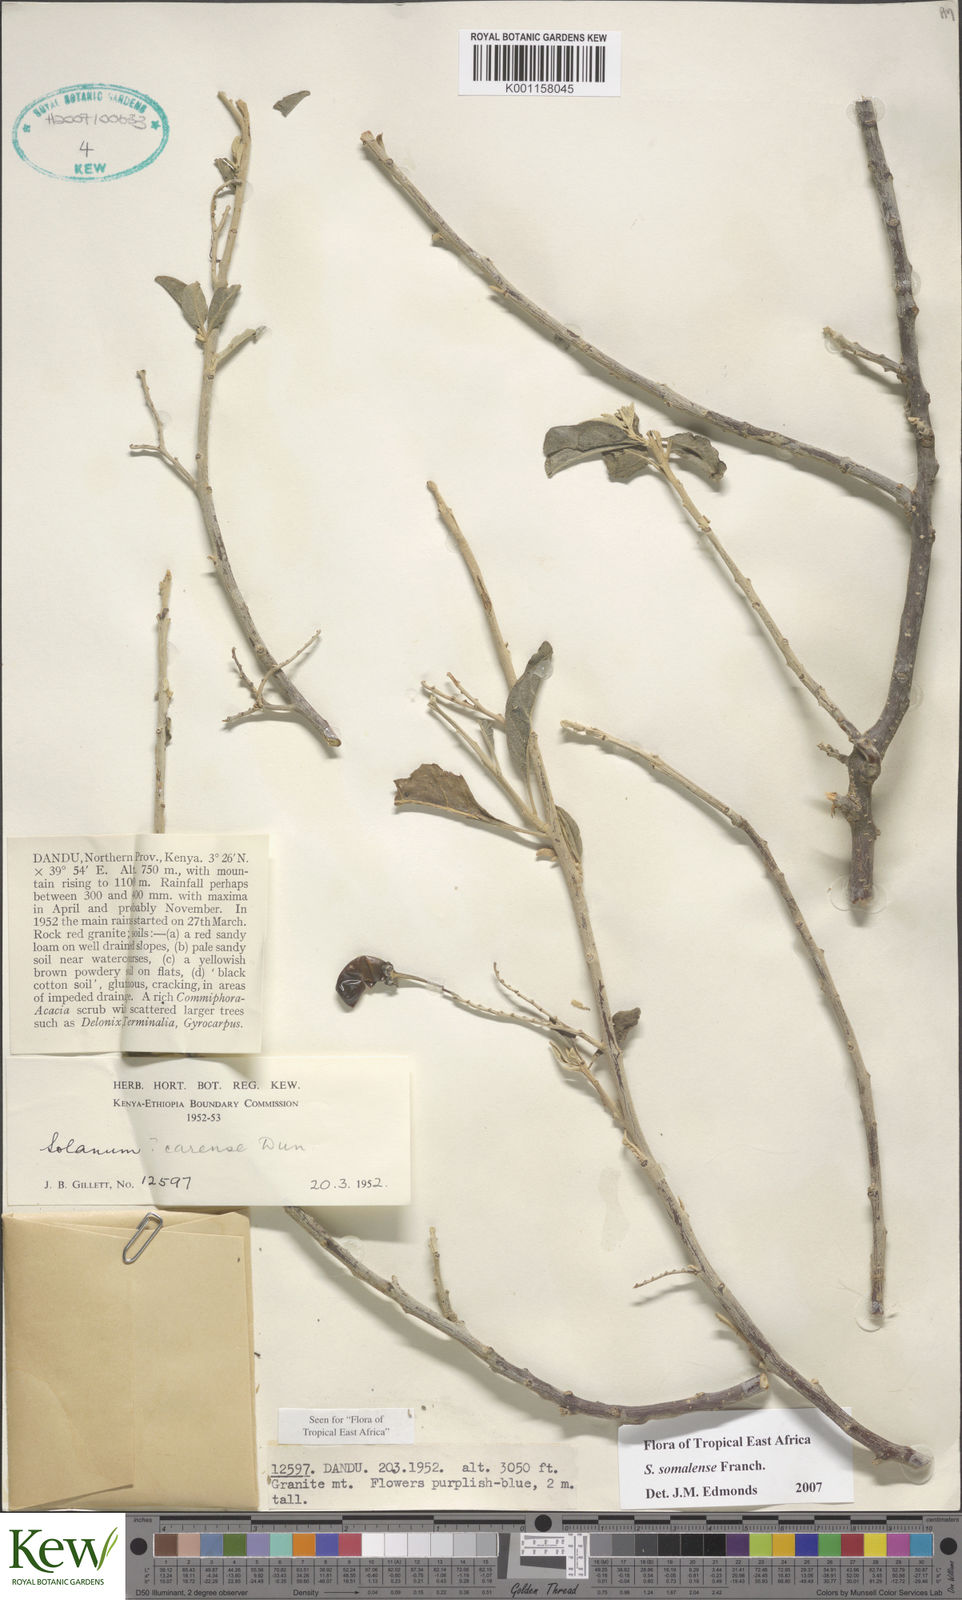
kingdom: Plantae
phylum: Tracheophyta
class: Magnoliopsida
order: Solanales
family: Solanaceae
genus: Solanum
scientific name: Solanum somalense
